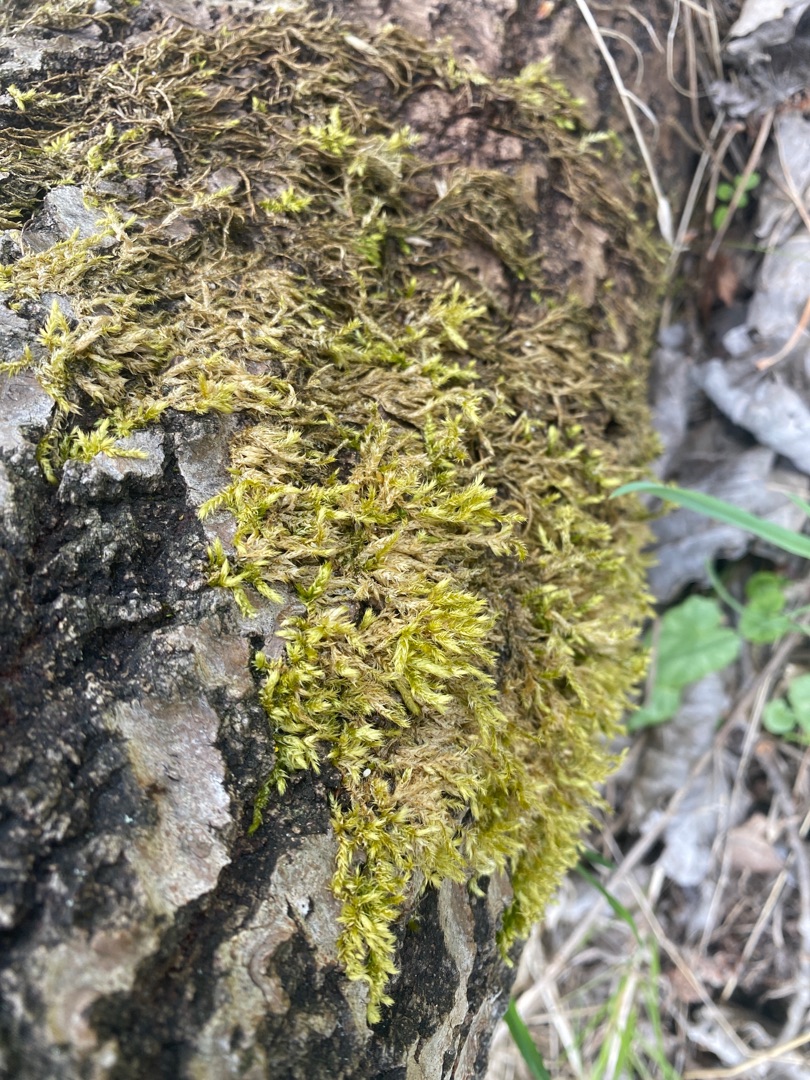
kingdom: Plantae
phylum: Bryophyta
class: Bryopsida
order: Hypnales
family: Brachytheciaceae
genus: Brachythecium
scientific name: Brachythecium rutabulum
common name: Almindelig kortkapsel
